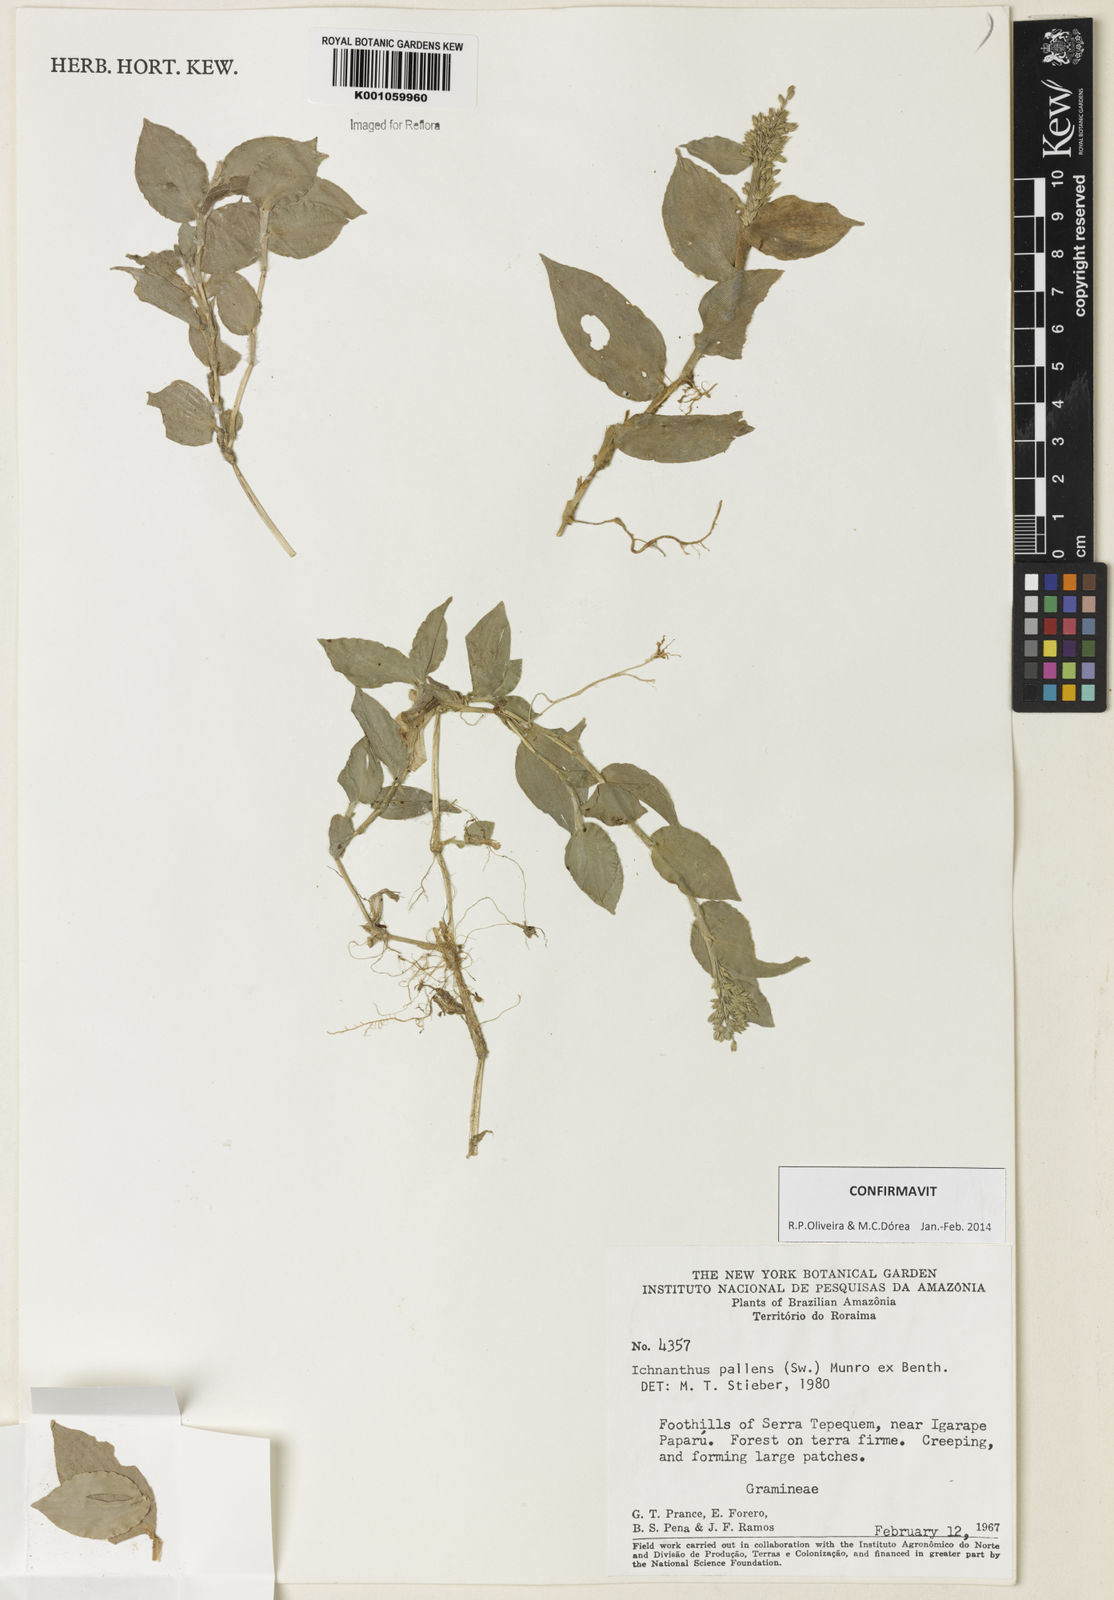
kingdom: Plantae
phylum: Tracheophyta
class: Liliopsida
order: Poales
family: Poaceae
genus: Ichnanthus
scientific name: Ichnanthus pallens
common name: Water grass
